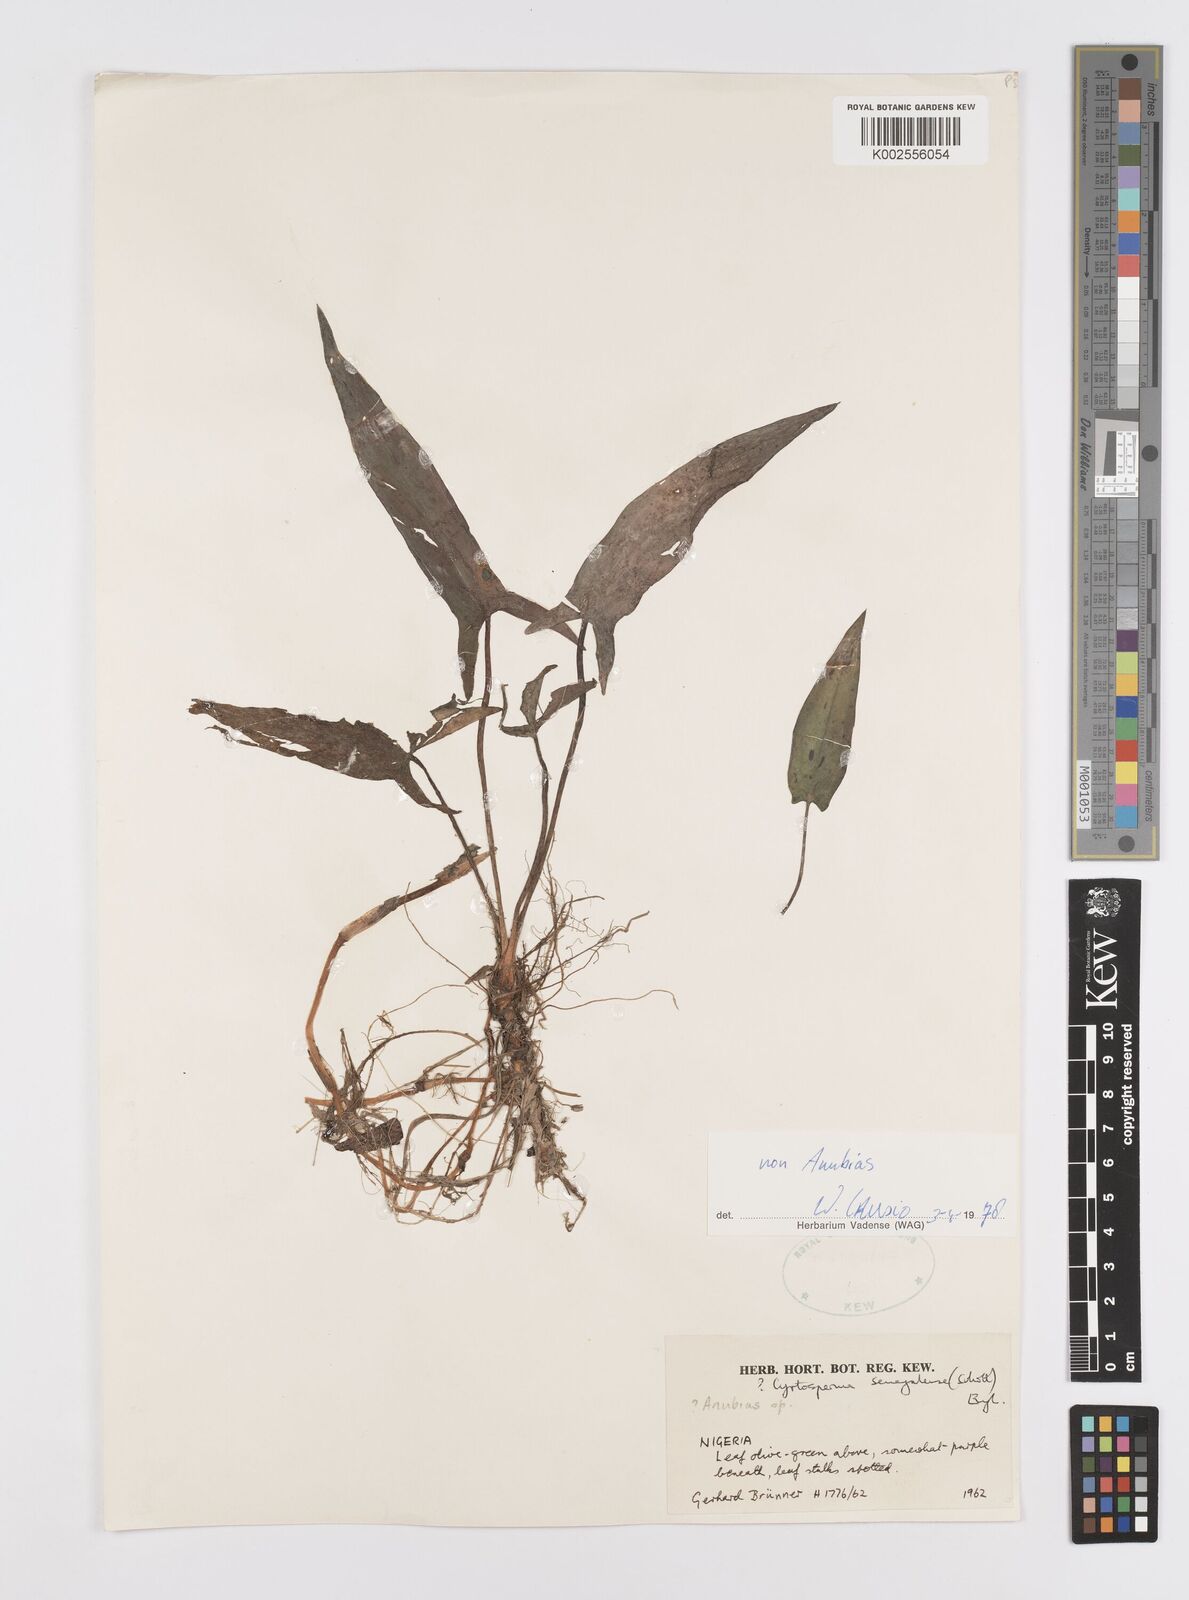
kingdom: Plantae
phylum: Tracheophyta
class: Liliopsida
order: Alismatales
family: Araceae
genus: Lasimorpha
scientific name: Lasimorpha senegalensis
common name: Swamp arum
